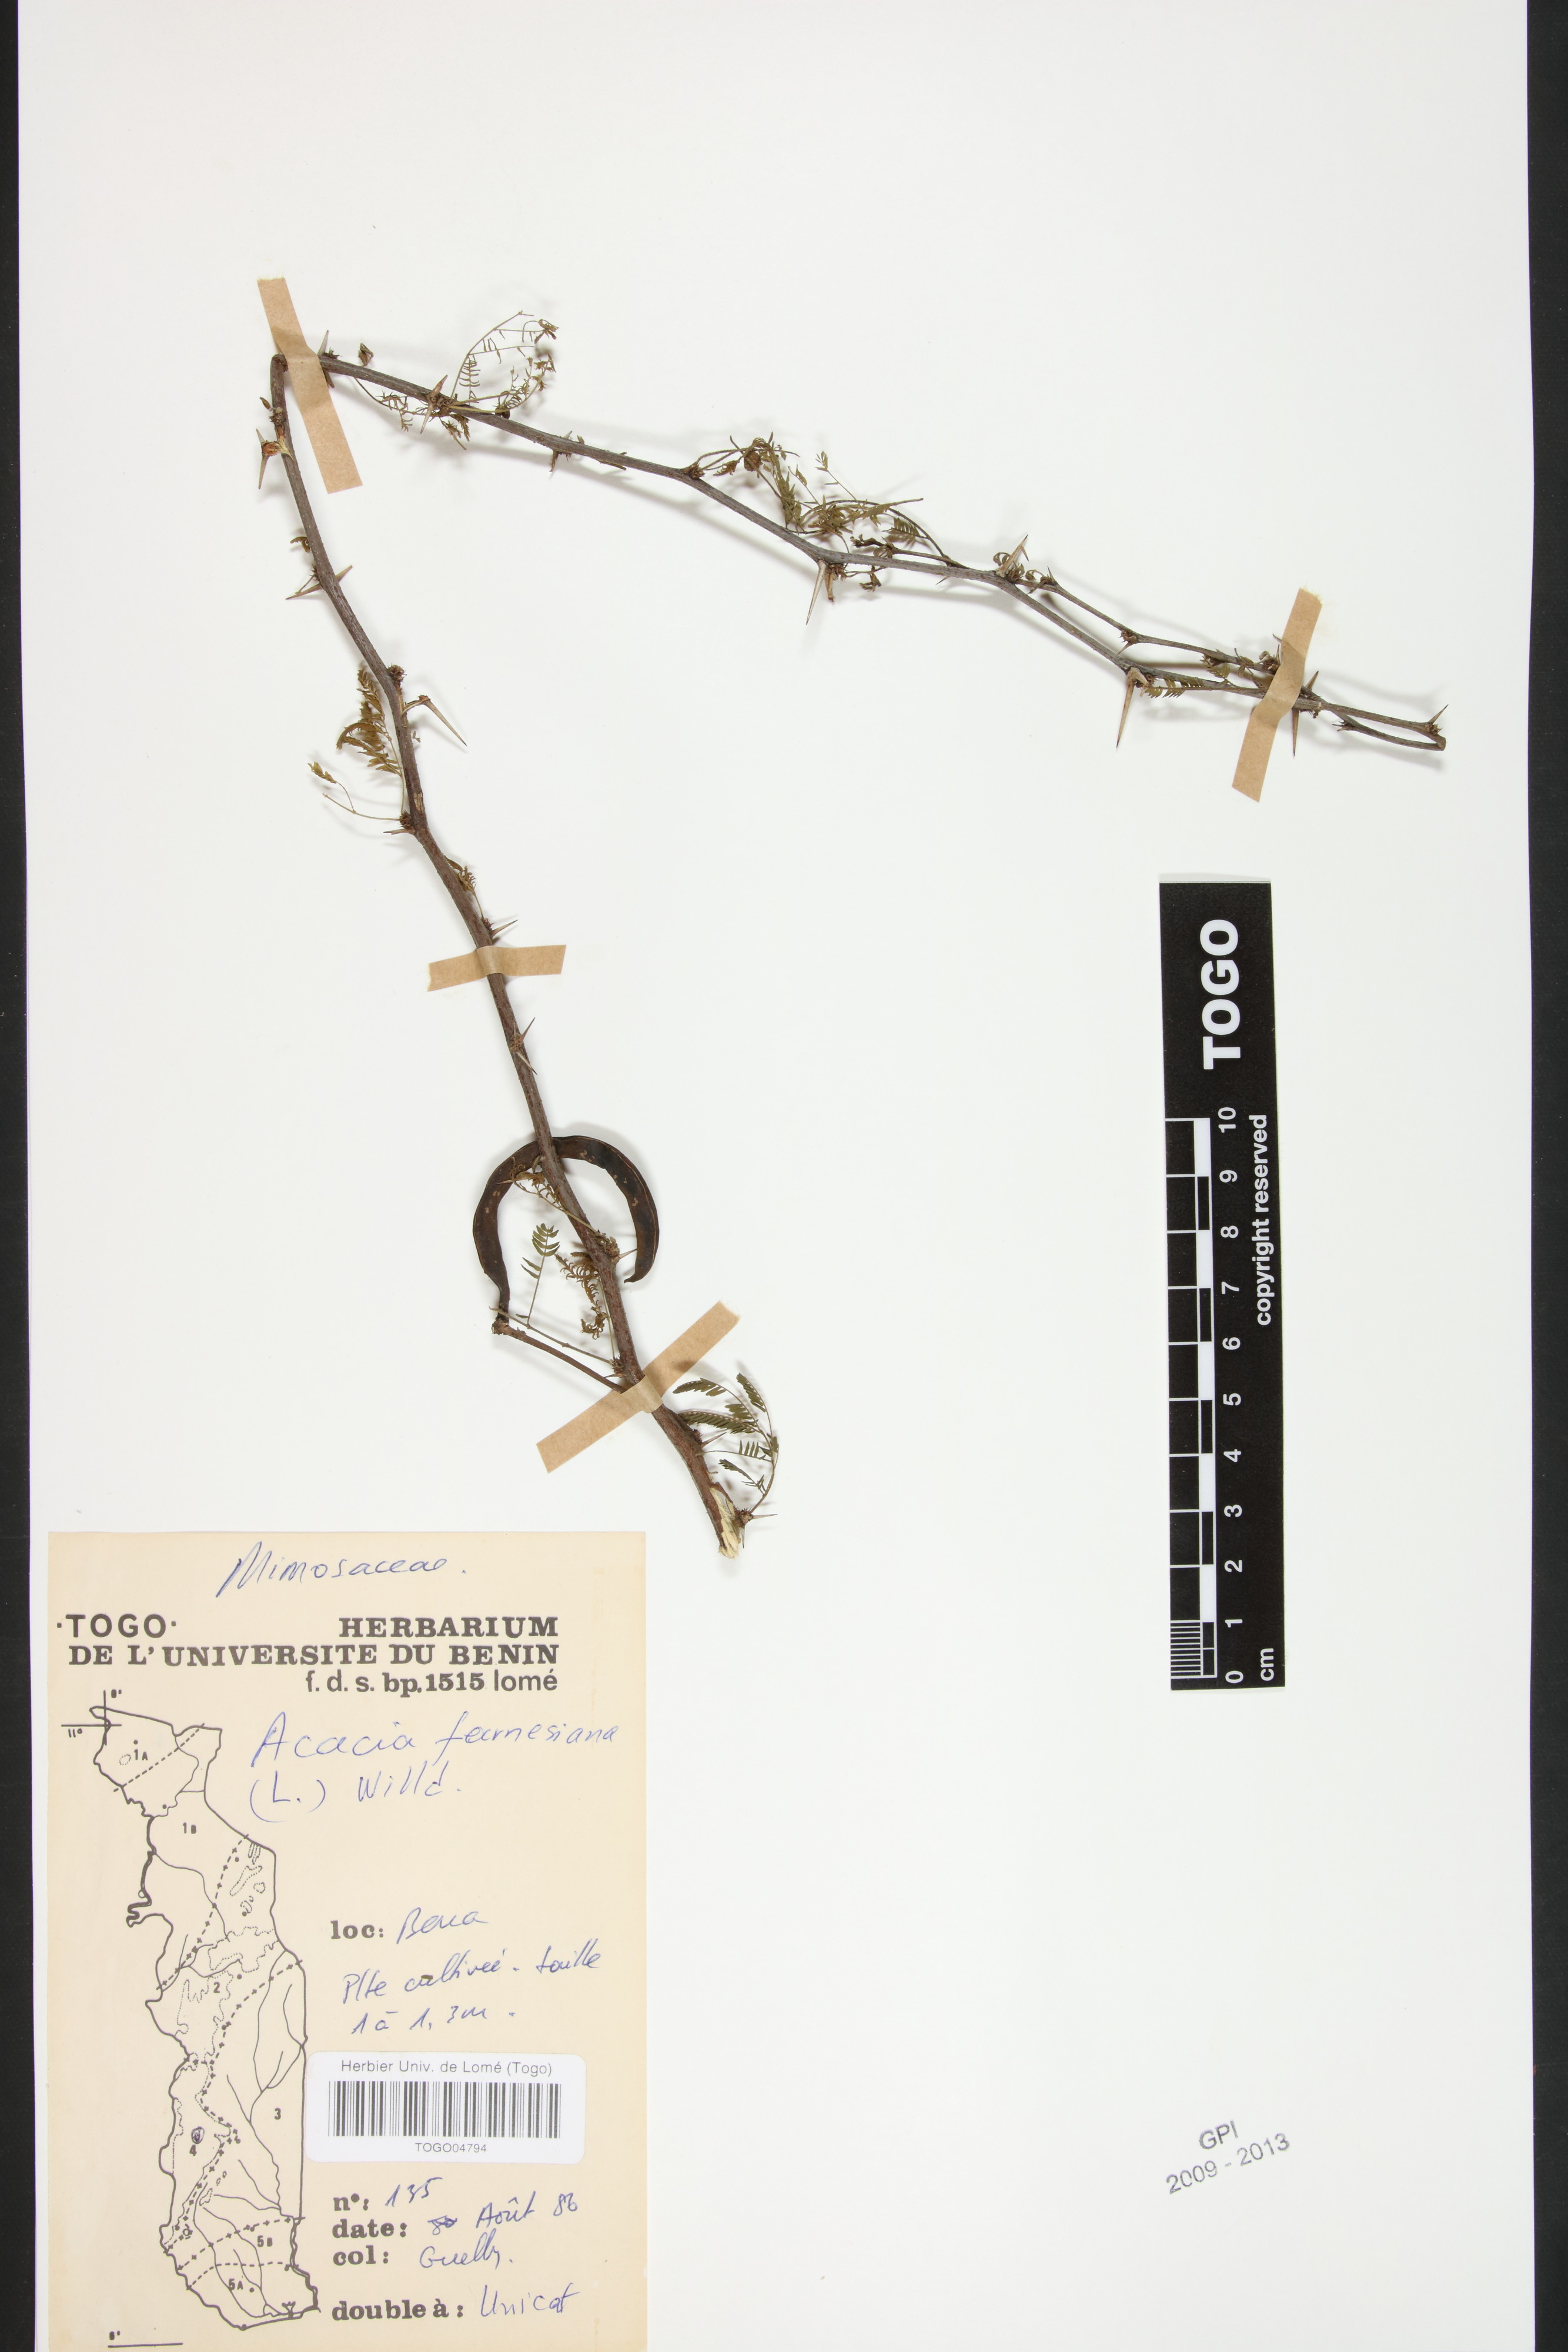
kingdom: Plantae
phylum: Tracheophyta
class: Magnoliopsida
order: Fabales
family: Fabaceae
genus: Vachellia
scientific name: Vachellia farnesiana
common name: Sweet acacia
